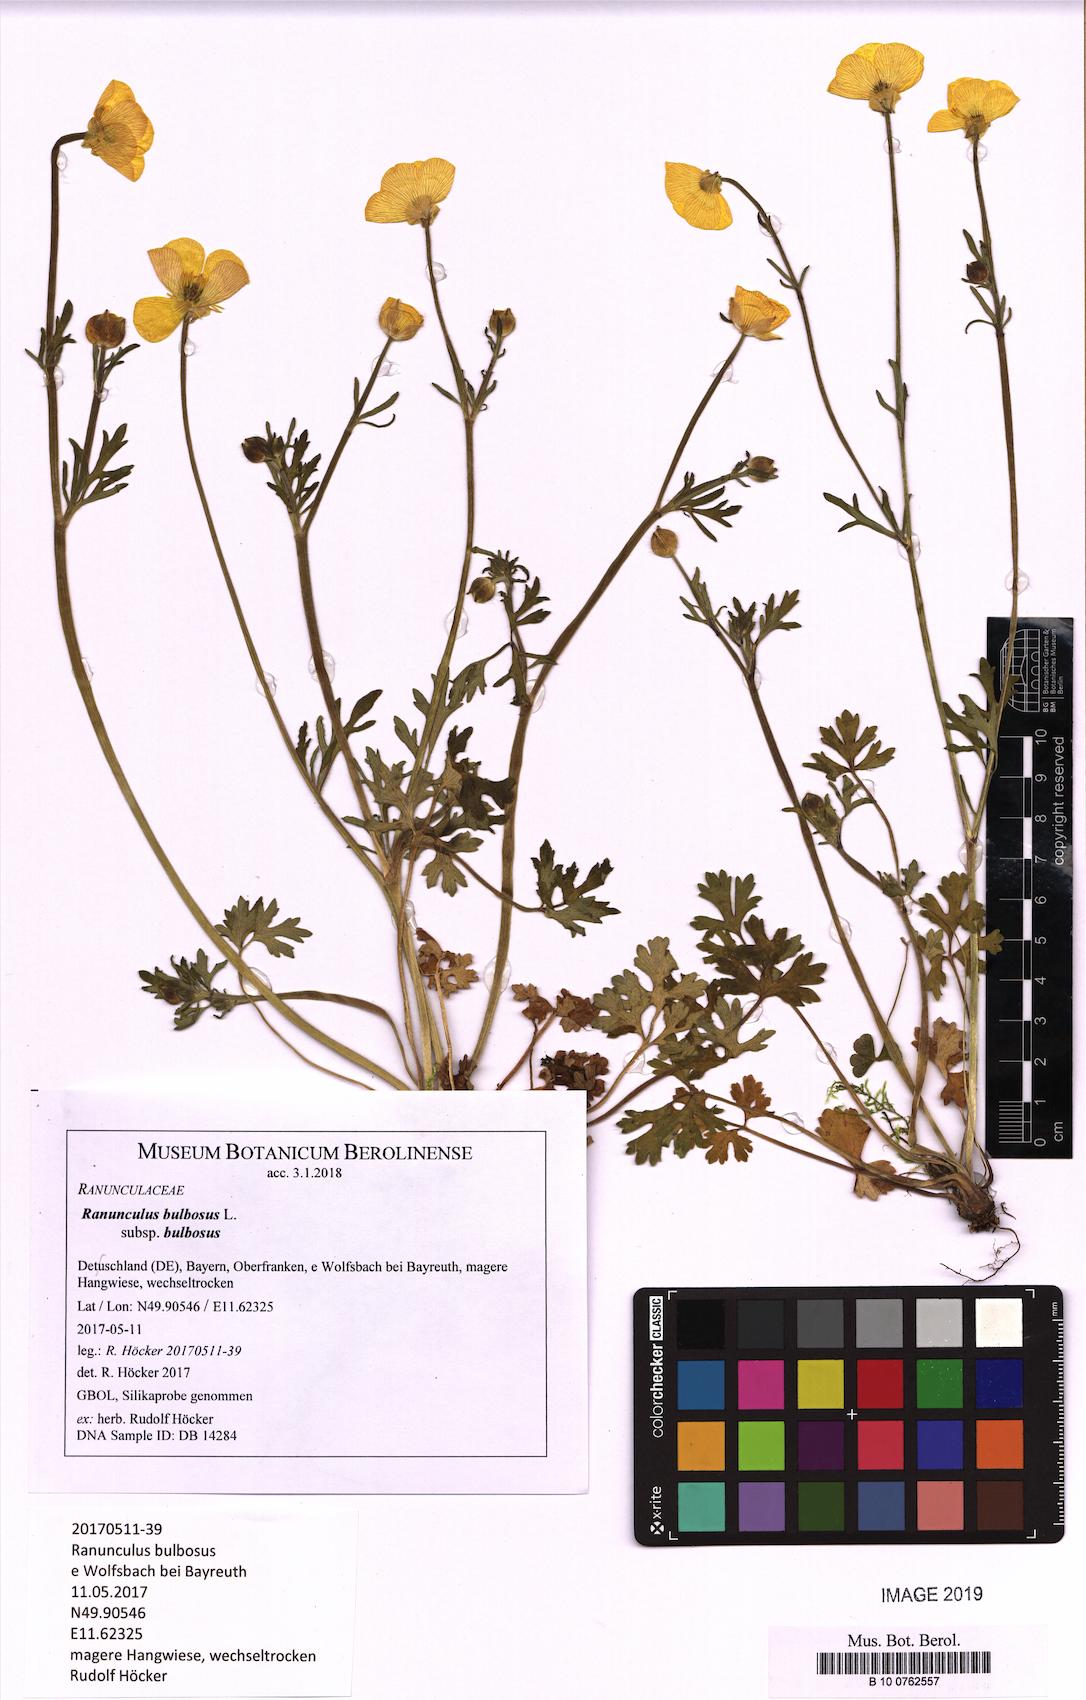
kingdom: Plantae
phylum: Tracheophyta
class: Magnoliopsida
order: Ranunculales
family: Ranunculaceae
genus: Ranunculus
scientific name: Ranunculus bulbosus
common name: Bulbous buttercup
